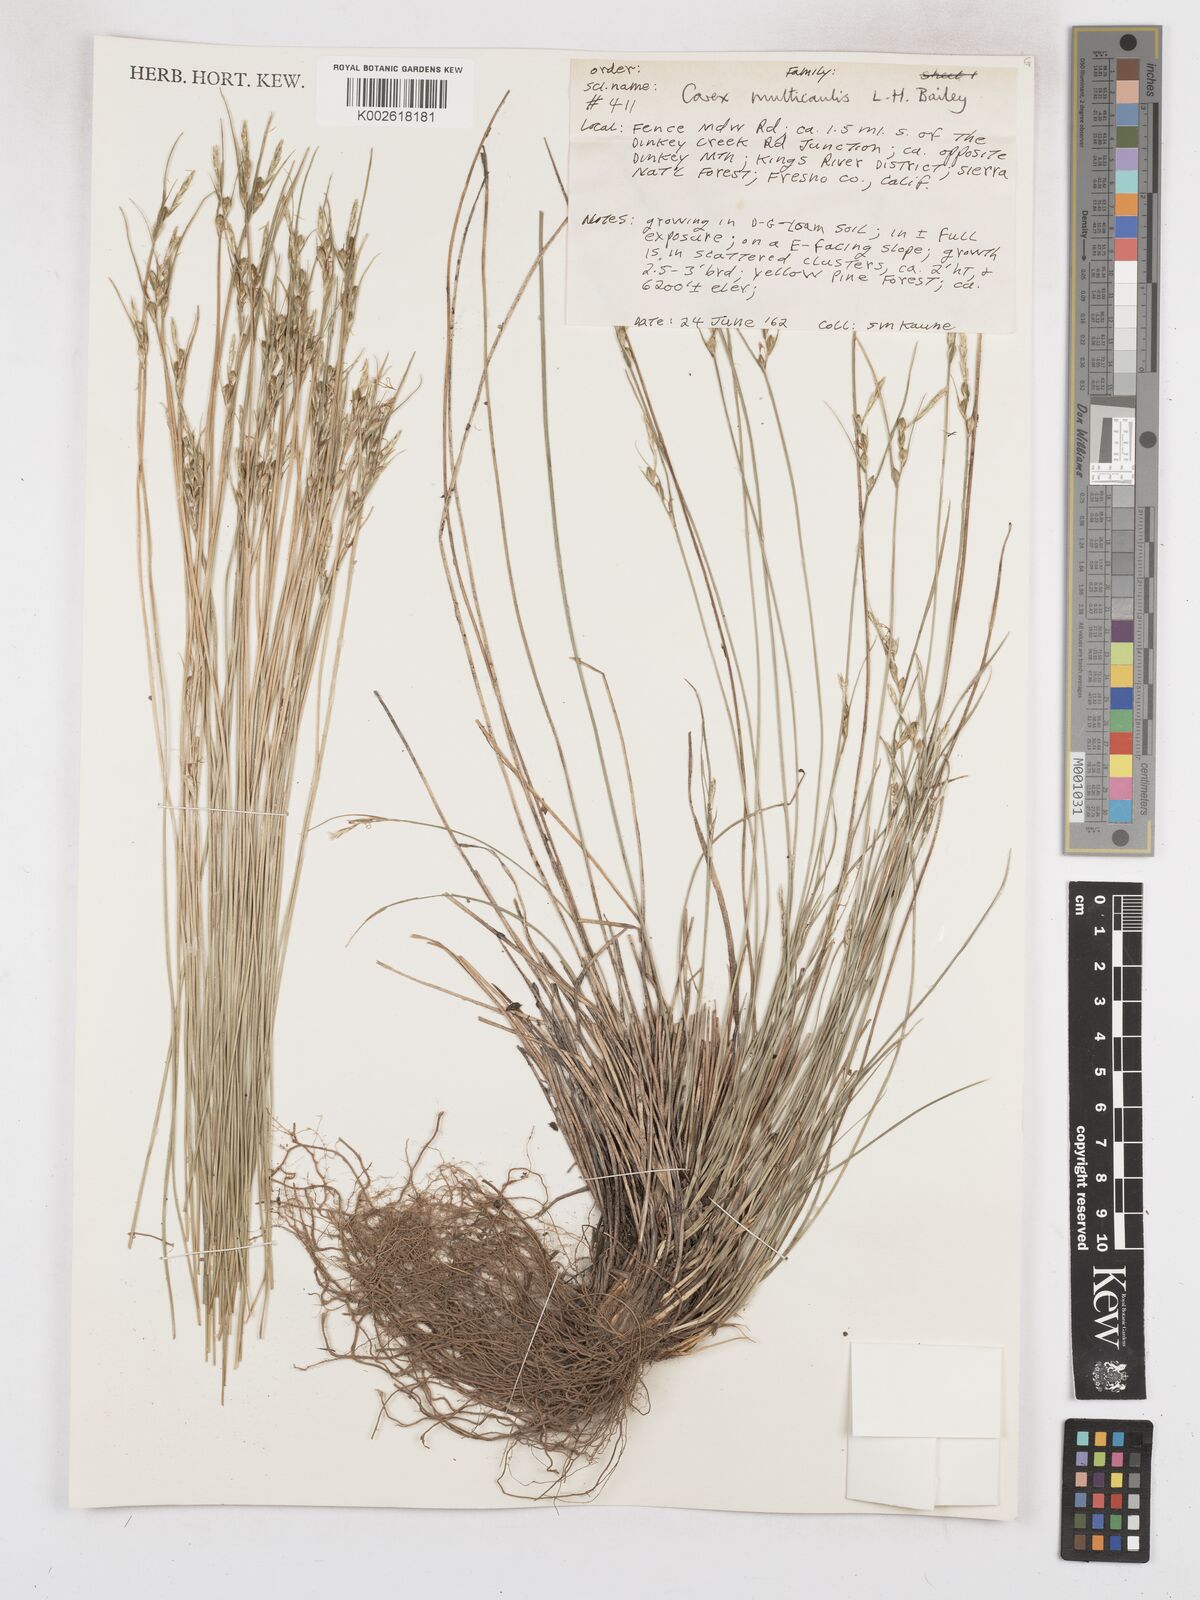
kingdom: Plantae
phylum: Tracheophyta
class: Liliopsida
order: Poales
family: Cyperaceae
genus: Carex
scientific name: Carex multicaulis
